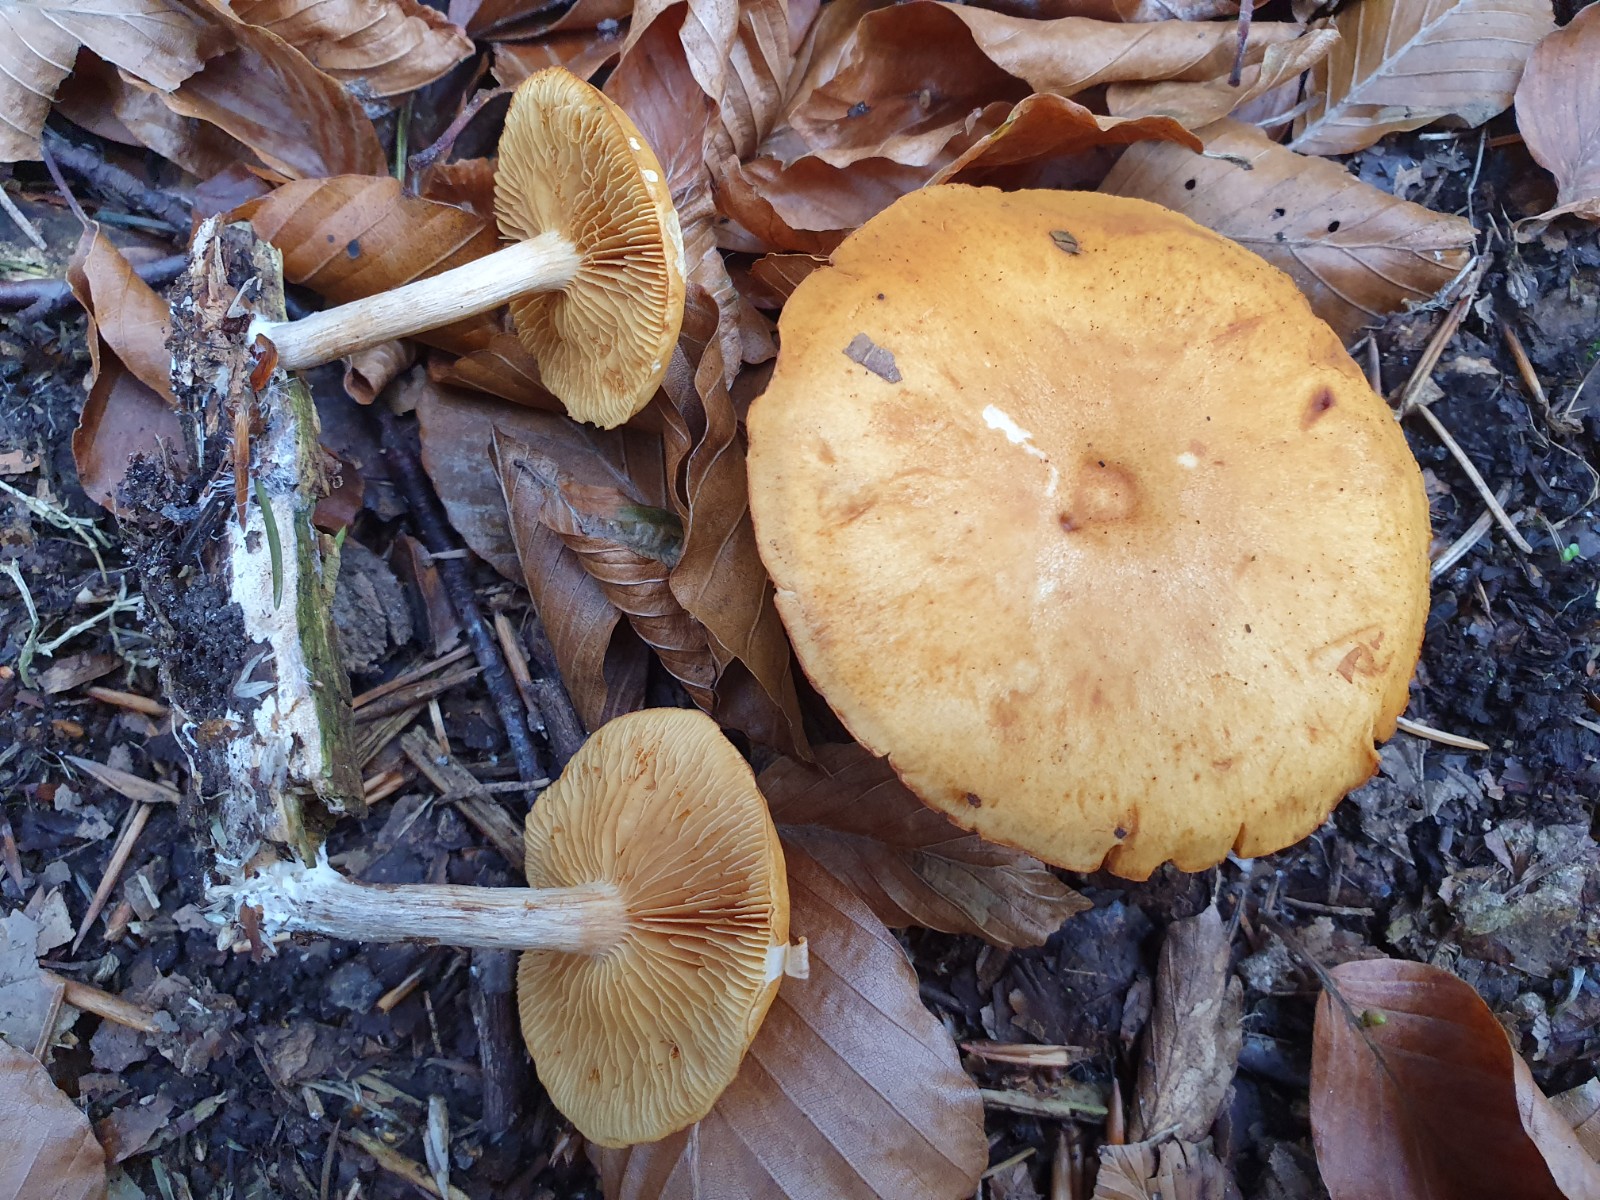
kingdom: Fungi
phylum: Basidiomycota
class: Agaricomycetes
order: Agaricales
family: Hymenogastraceae
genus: Gymnopilus
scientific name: Gymnopilus penetrans
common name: plettet flammehat
